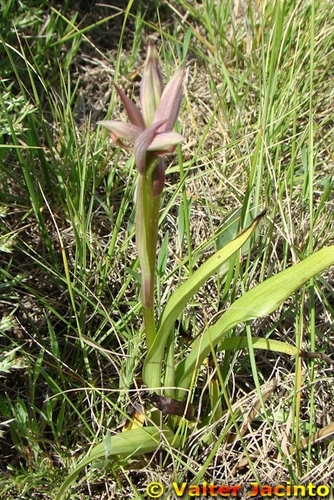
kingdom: Plantae
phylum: Tracheophyta
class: Liliopsida
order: Asparagales
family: Orchidaceae
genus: Serapias
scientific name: Serapias parviflora
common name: Small-flowered tongue-orchid
